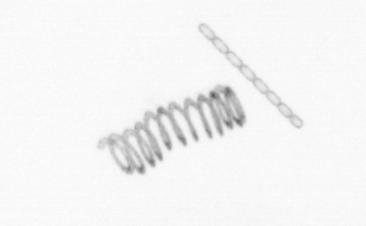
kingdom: Chromista
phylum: Ochrophyta
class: Bacillariophyceae
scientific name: Bacillariophyceae
